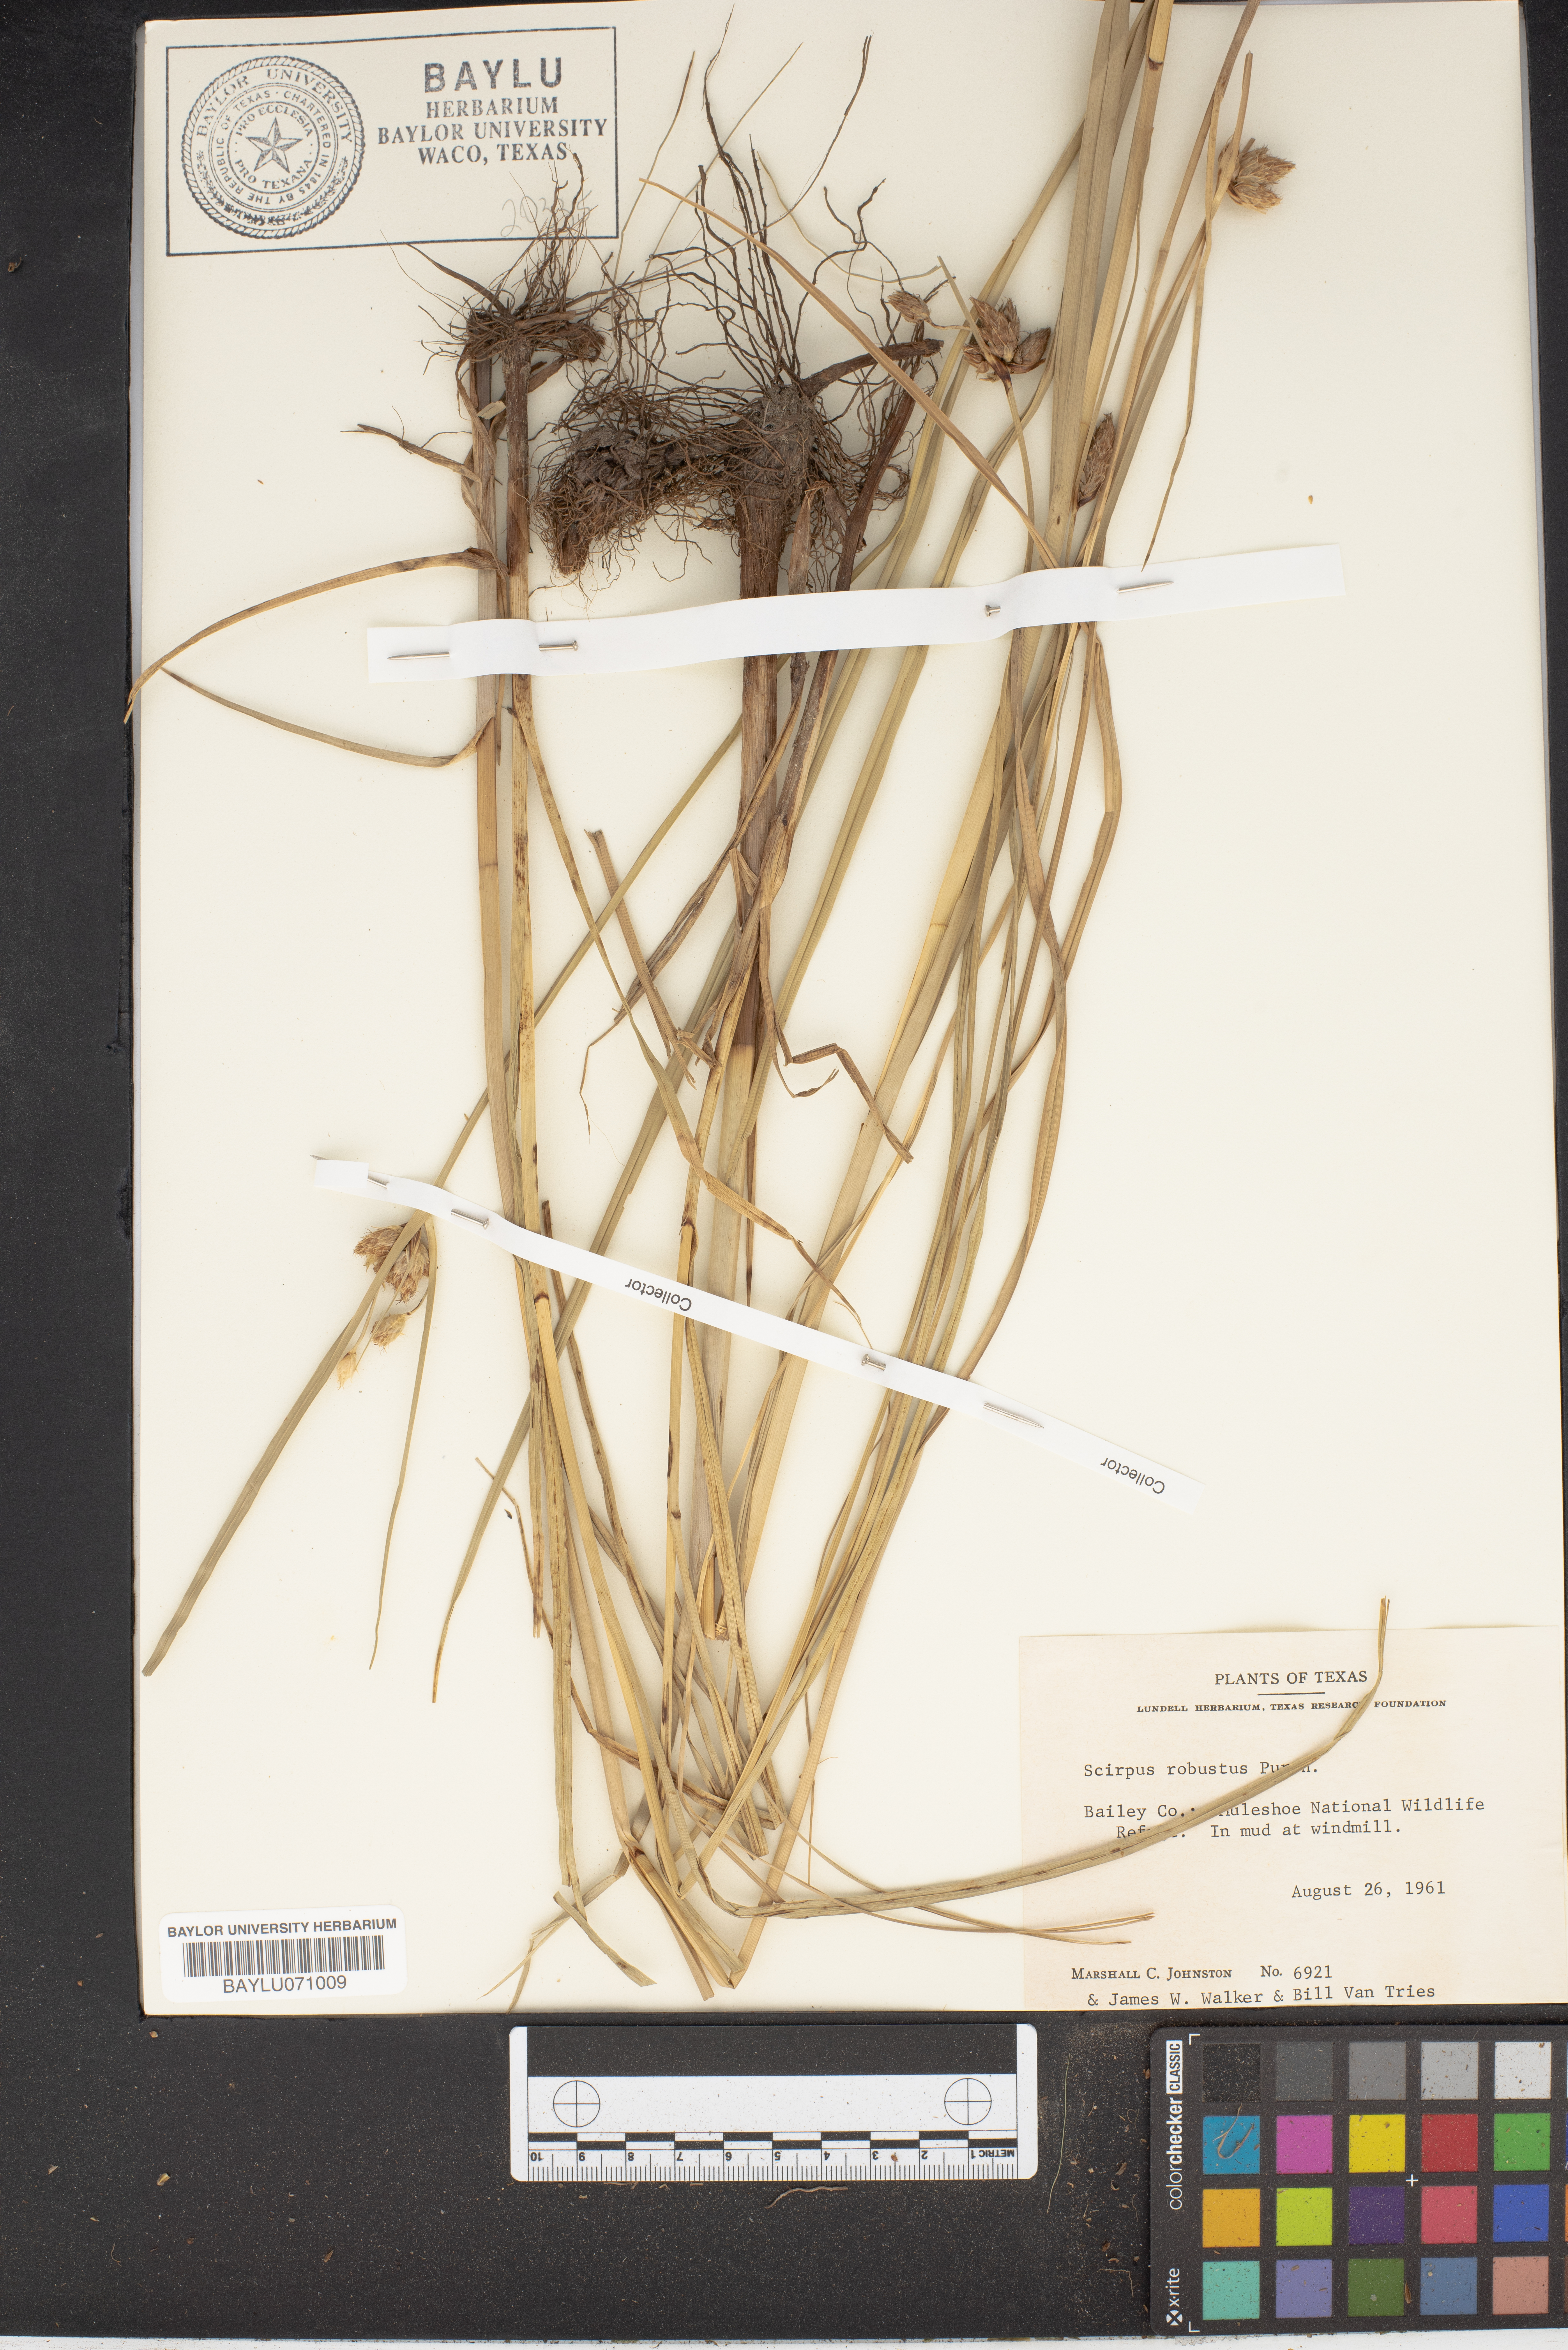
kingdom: Plantae
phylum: Tracheophyta
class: Liliopsida
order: Poales
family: Cyperaceae
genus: Bolboschoenus
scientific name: Bolboschoenus robustus
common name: Seacoast bulrush
